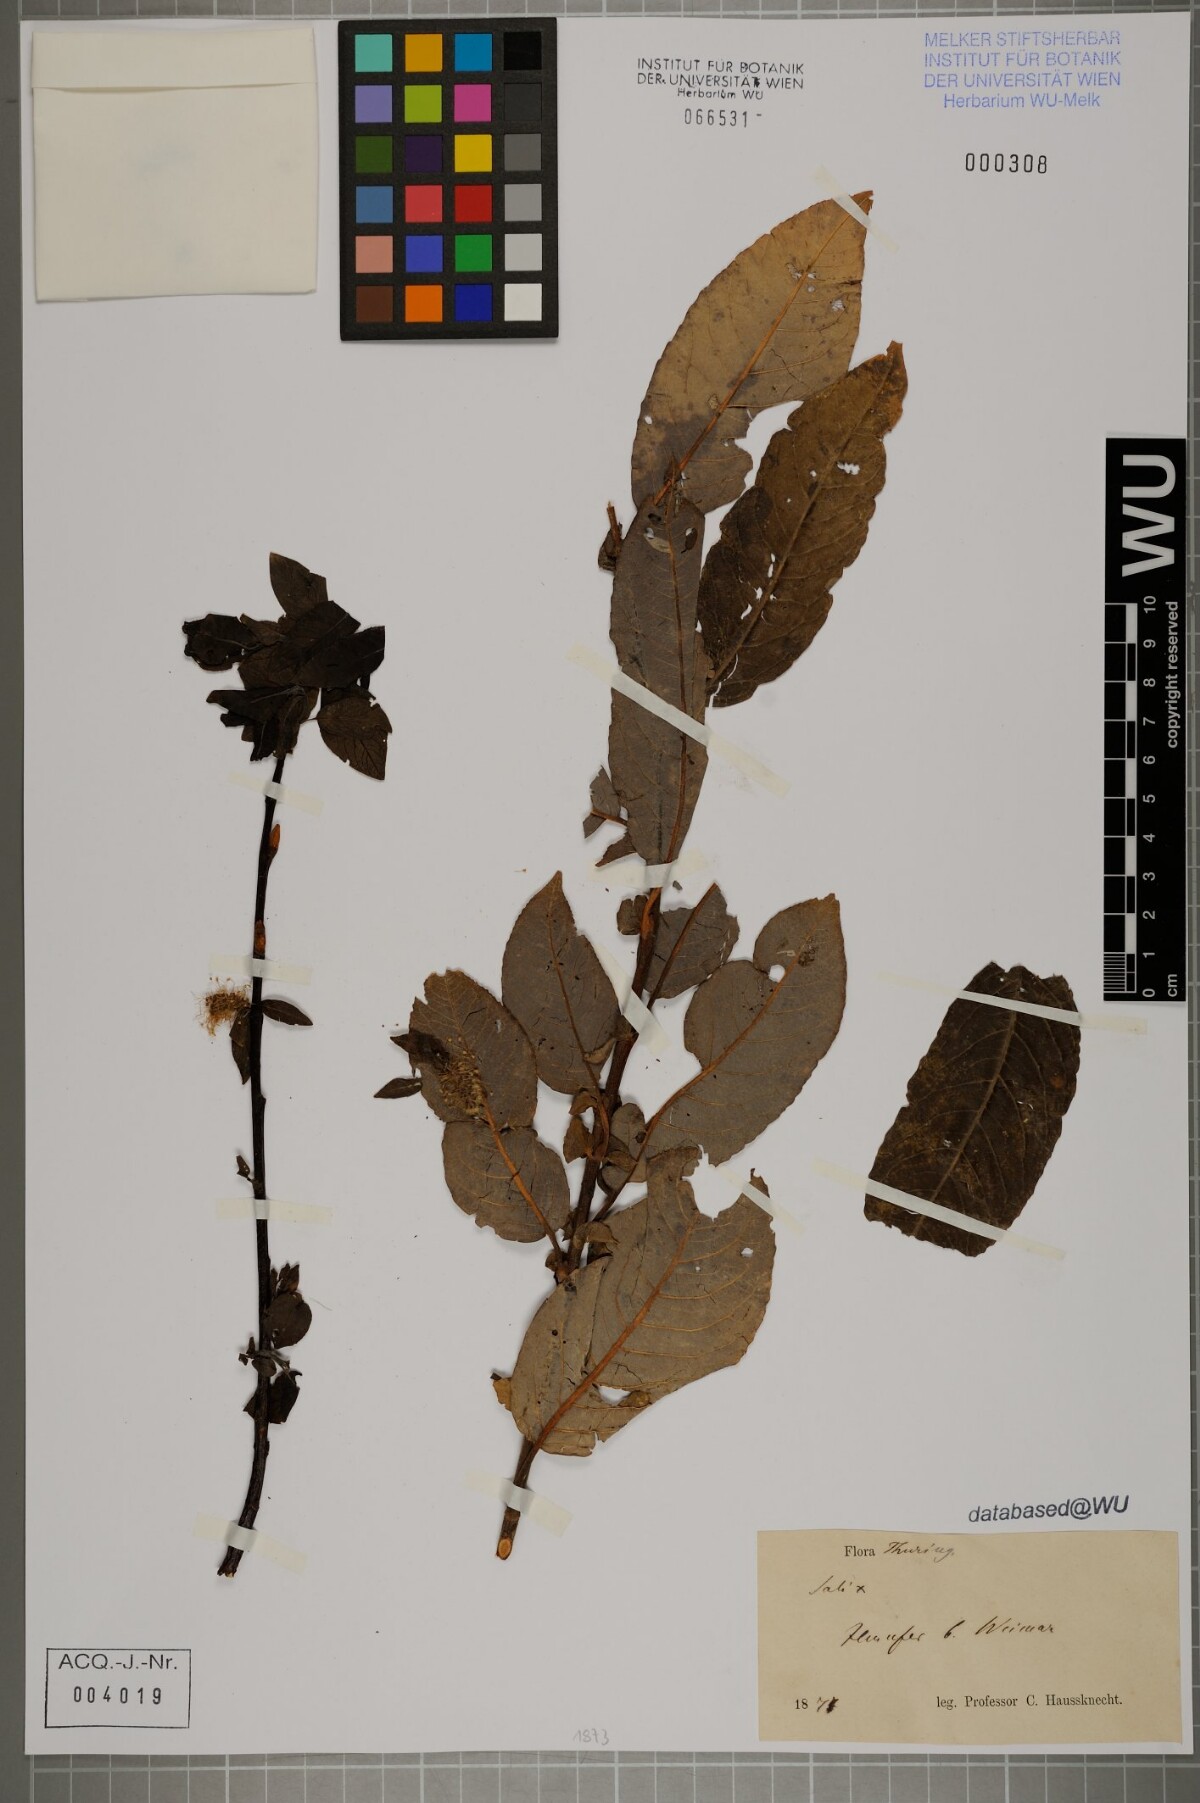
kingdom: Plantae
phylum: Tracheophyta
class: Magnoliopsida
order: Malpighiales
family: Salicaceae
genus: Salix
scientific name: Salix
